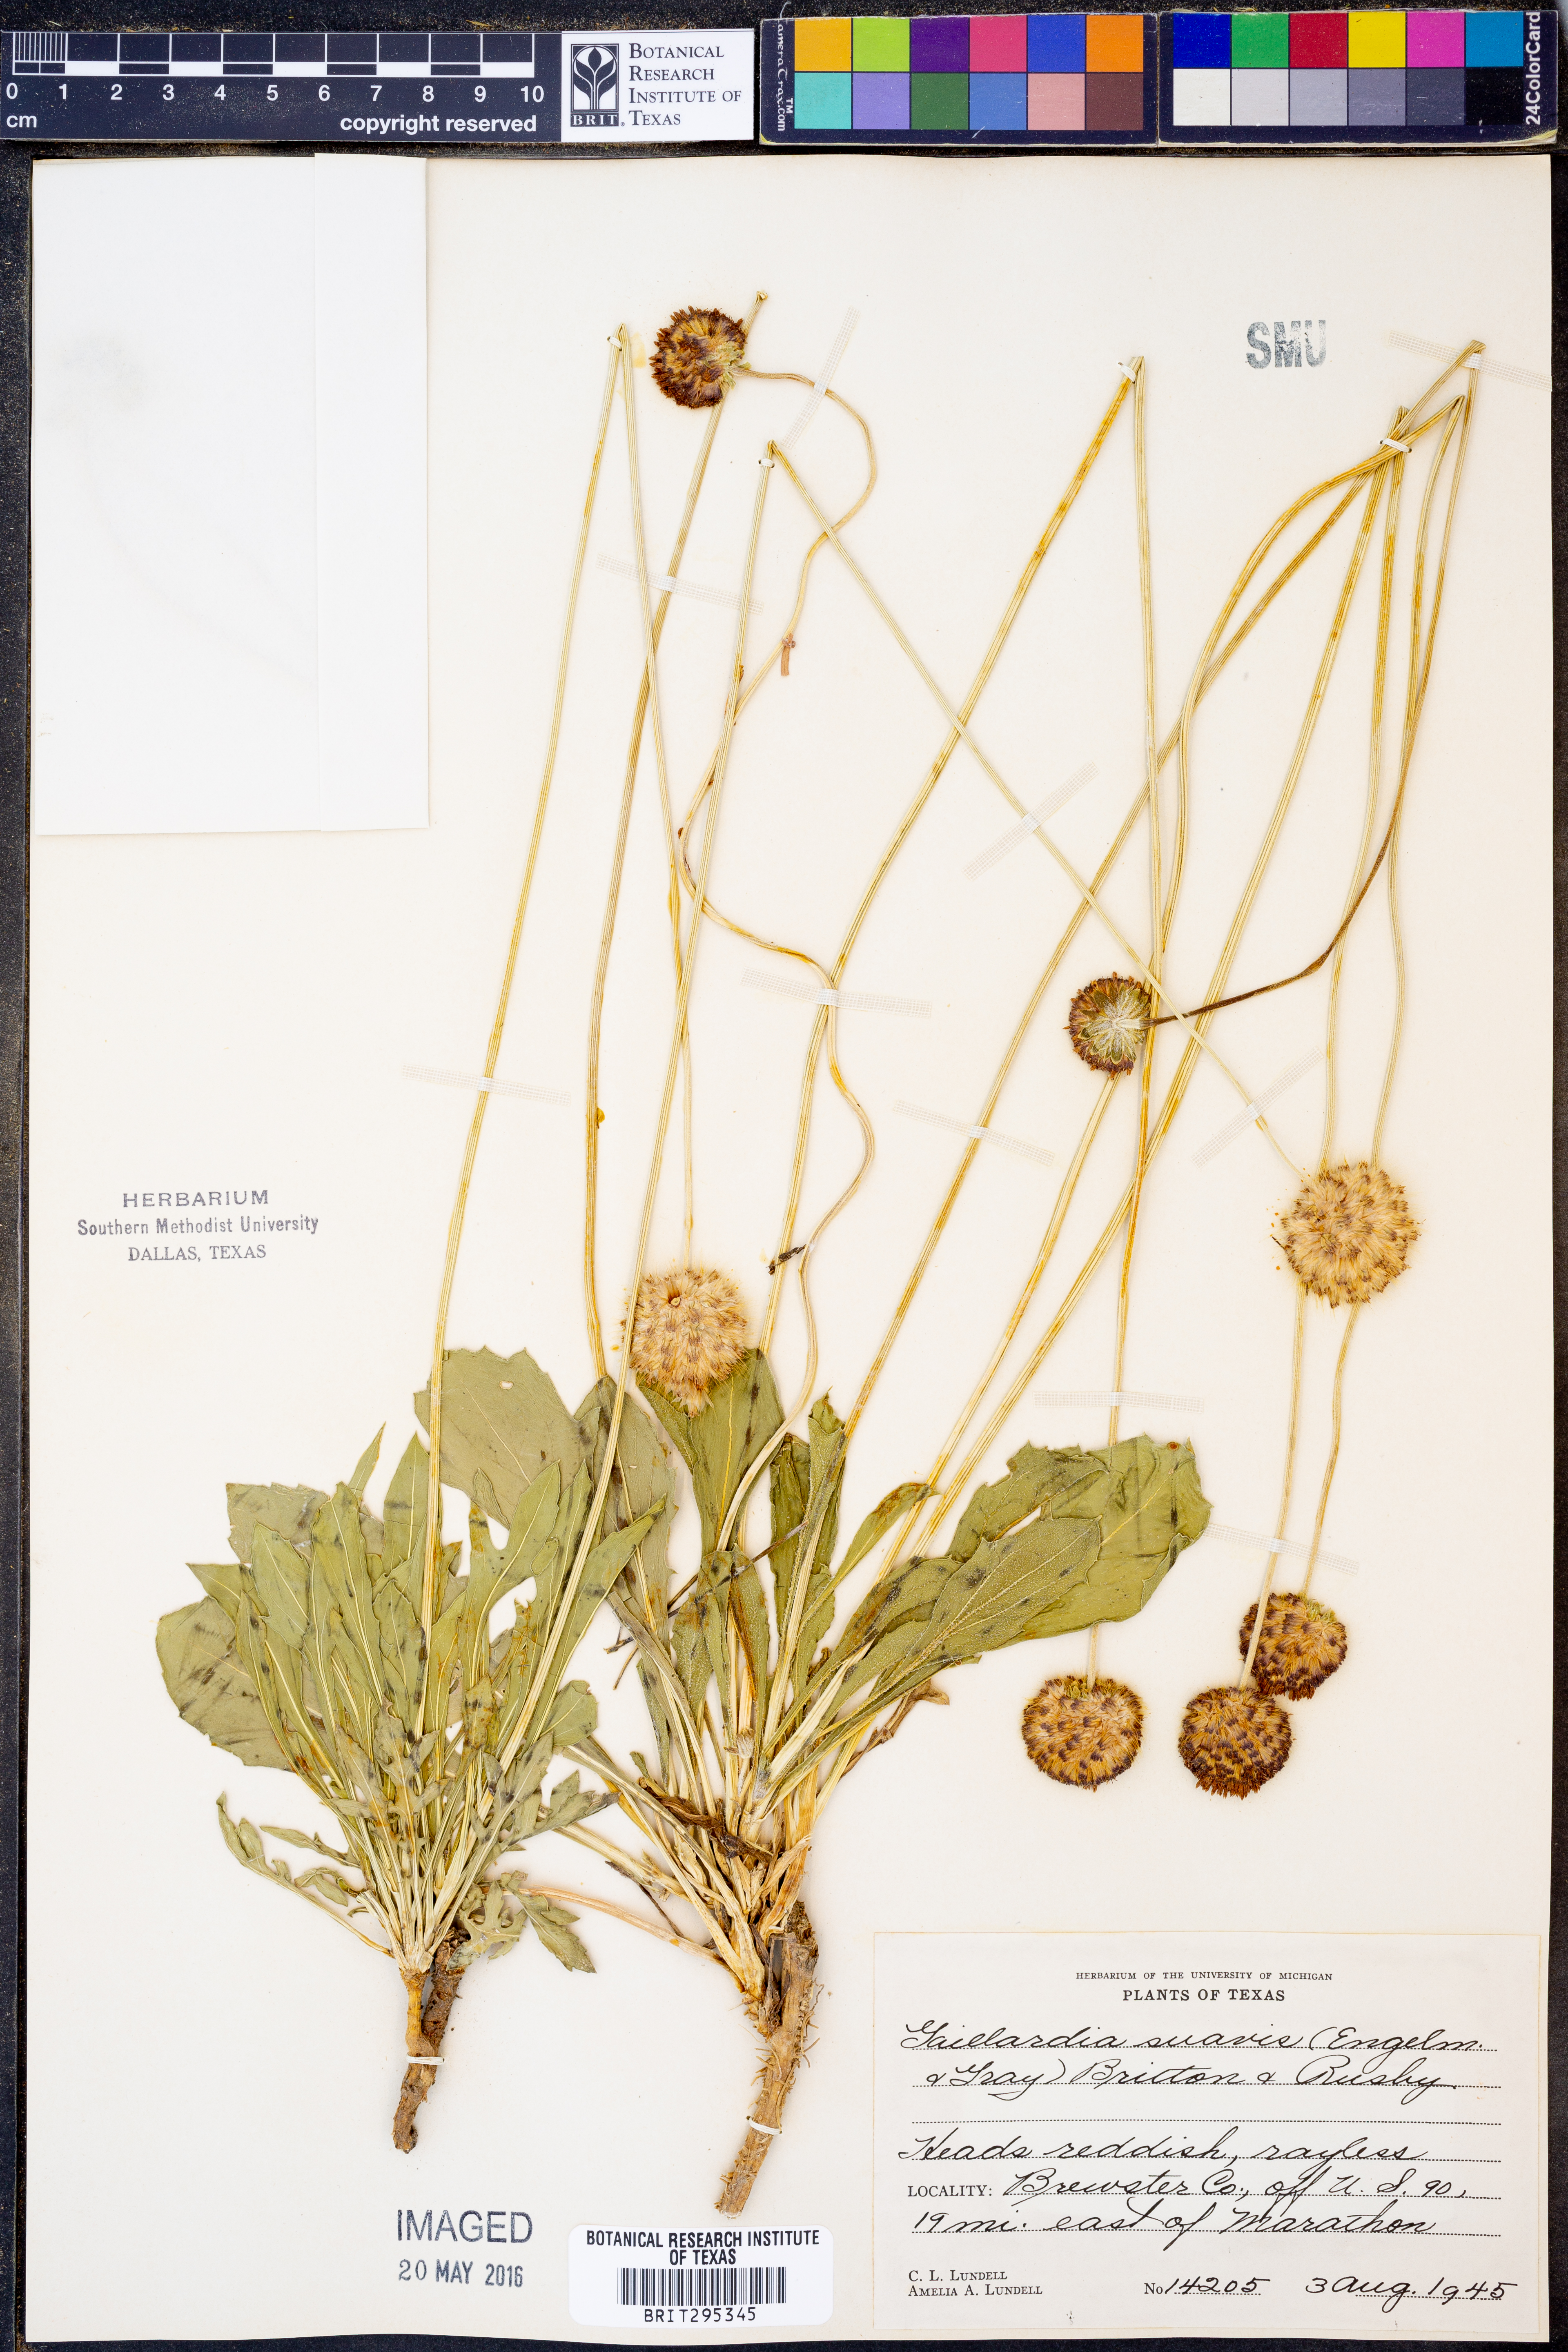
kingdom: Plantae
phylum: Tracheophyta
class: Magnoliopsida
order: Asterales
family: Asteraceae
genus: Gaillardia
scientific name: Gaillardia suavis
